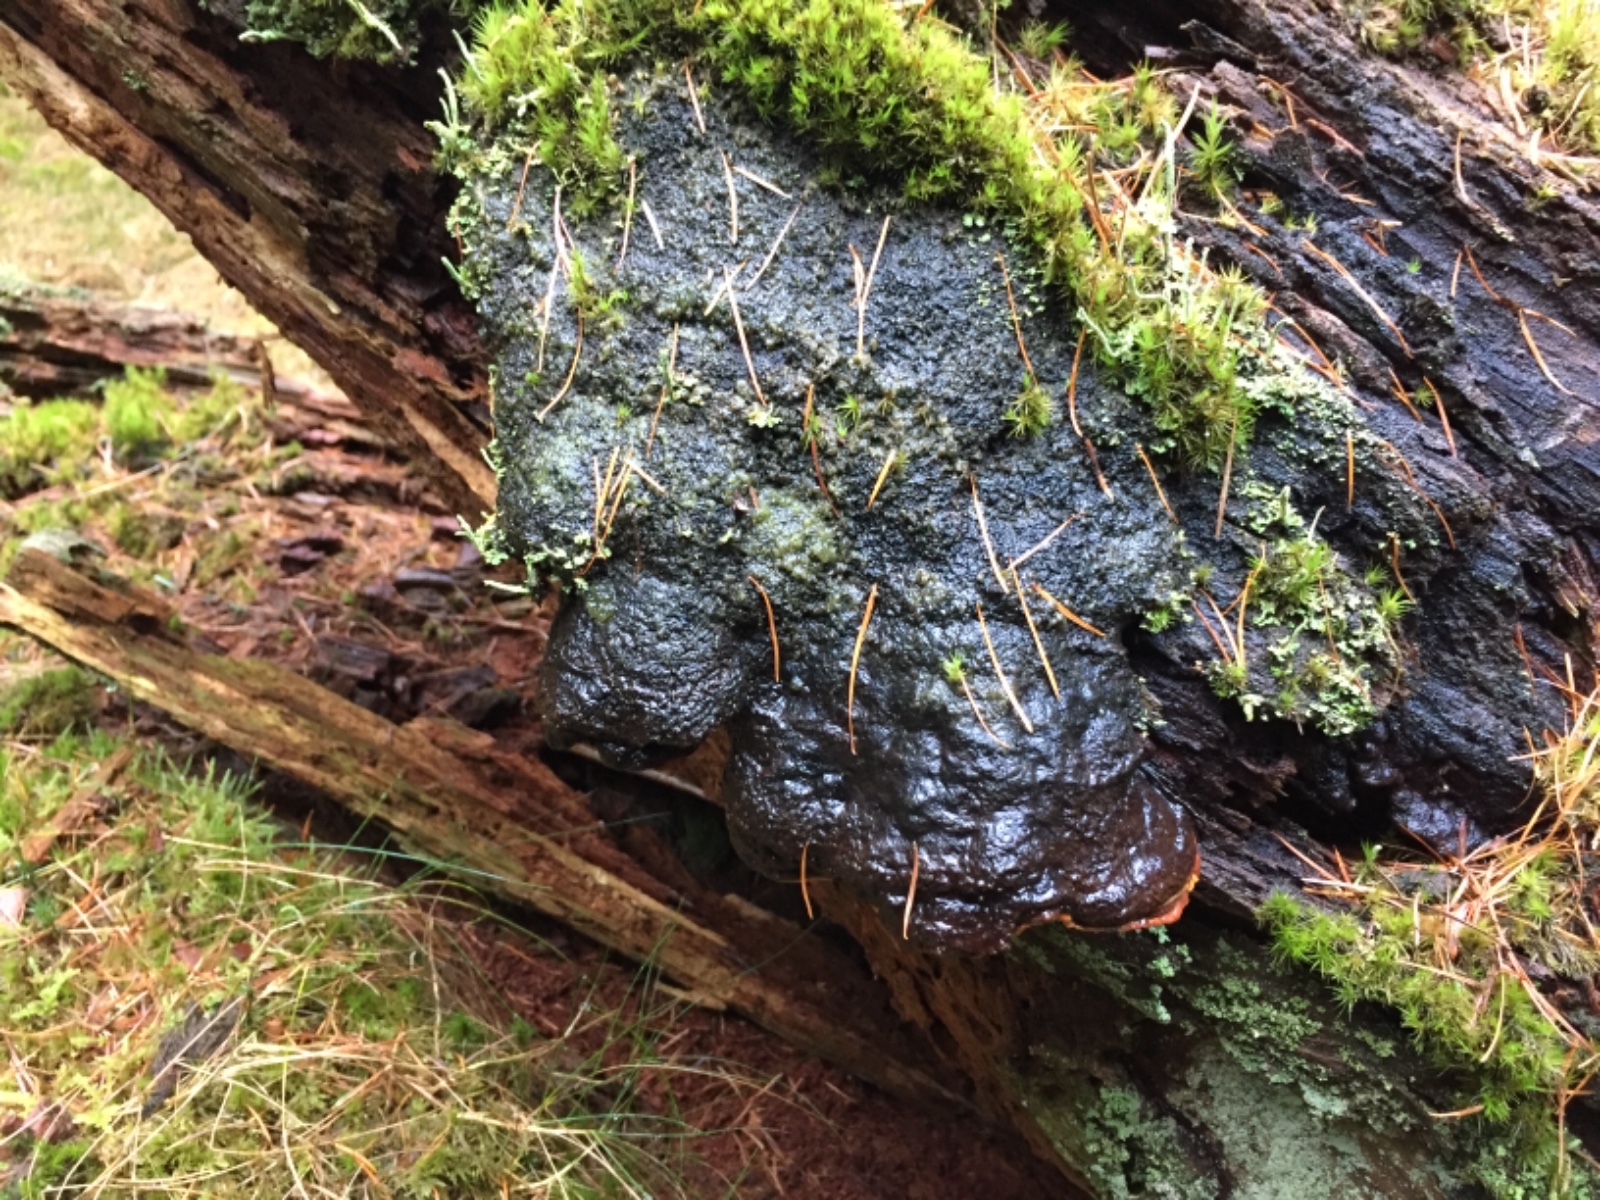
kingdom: Fungi
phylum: Basidiomycota
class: Agaricomycetes
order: Gloeophyllales
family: Gloeophyllaceae
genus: Gloeophyllum
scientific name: Gloeophyllum odoratum
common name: duftende korkhat
